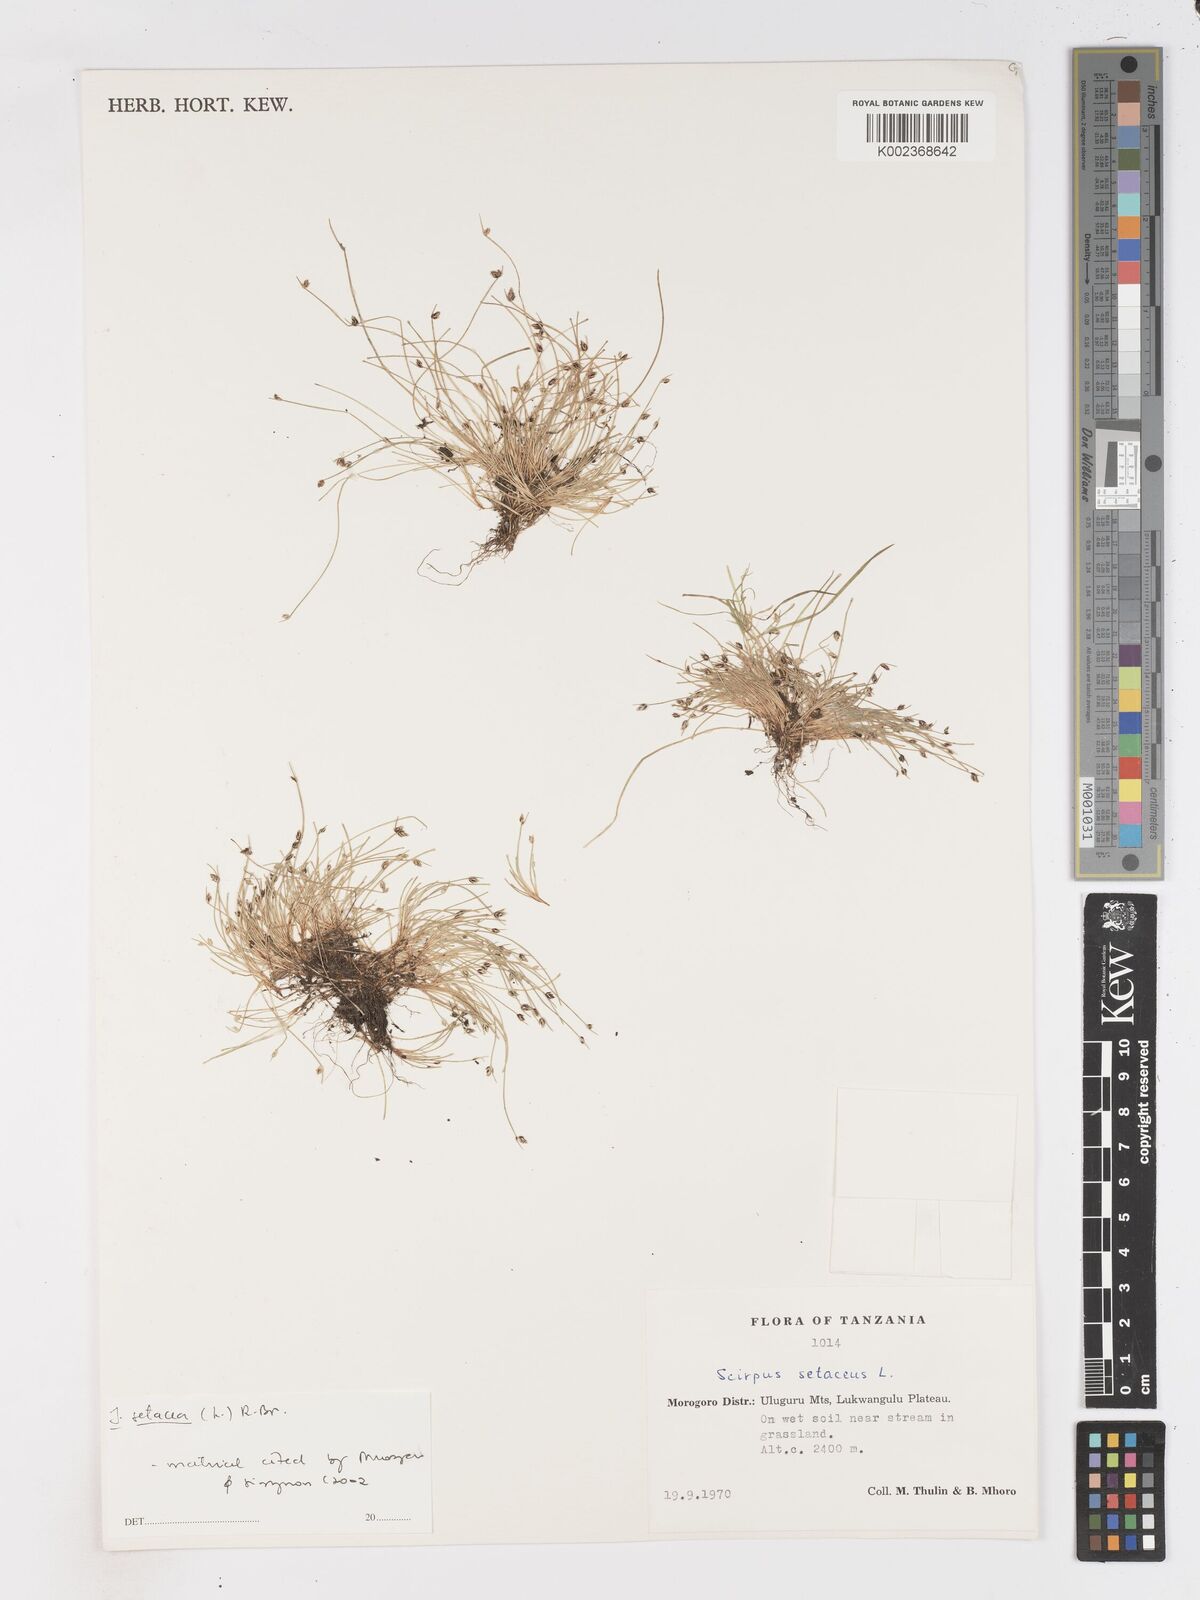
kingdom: Plantae
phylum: Tracheophyta
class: Liliopsida
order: Poales
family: Cyperaceae
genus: Isolepis
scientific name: Isolepis setacea
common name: Bristle club-rush
